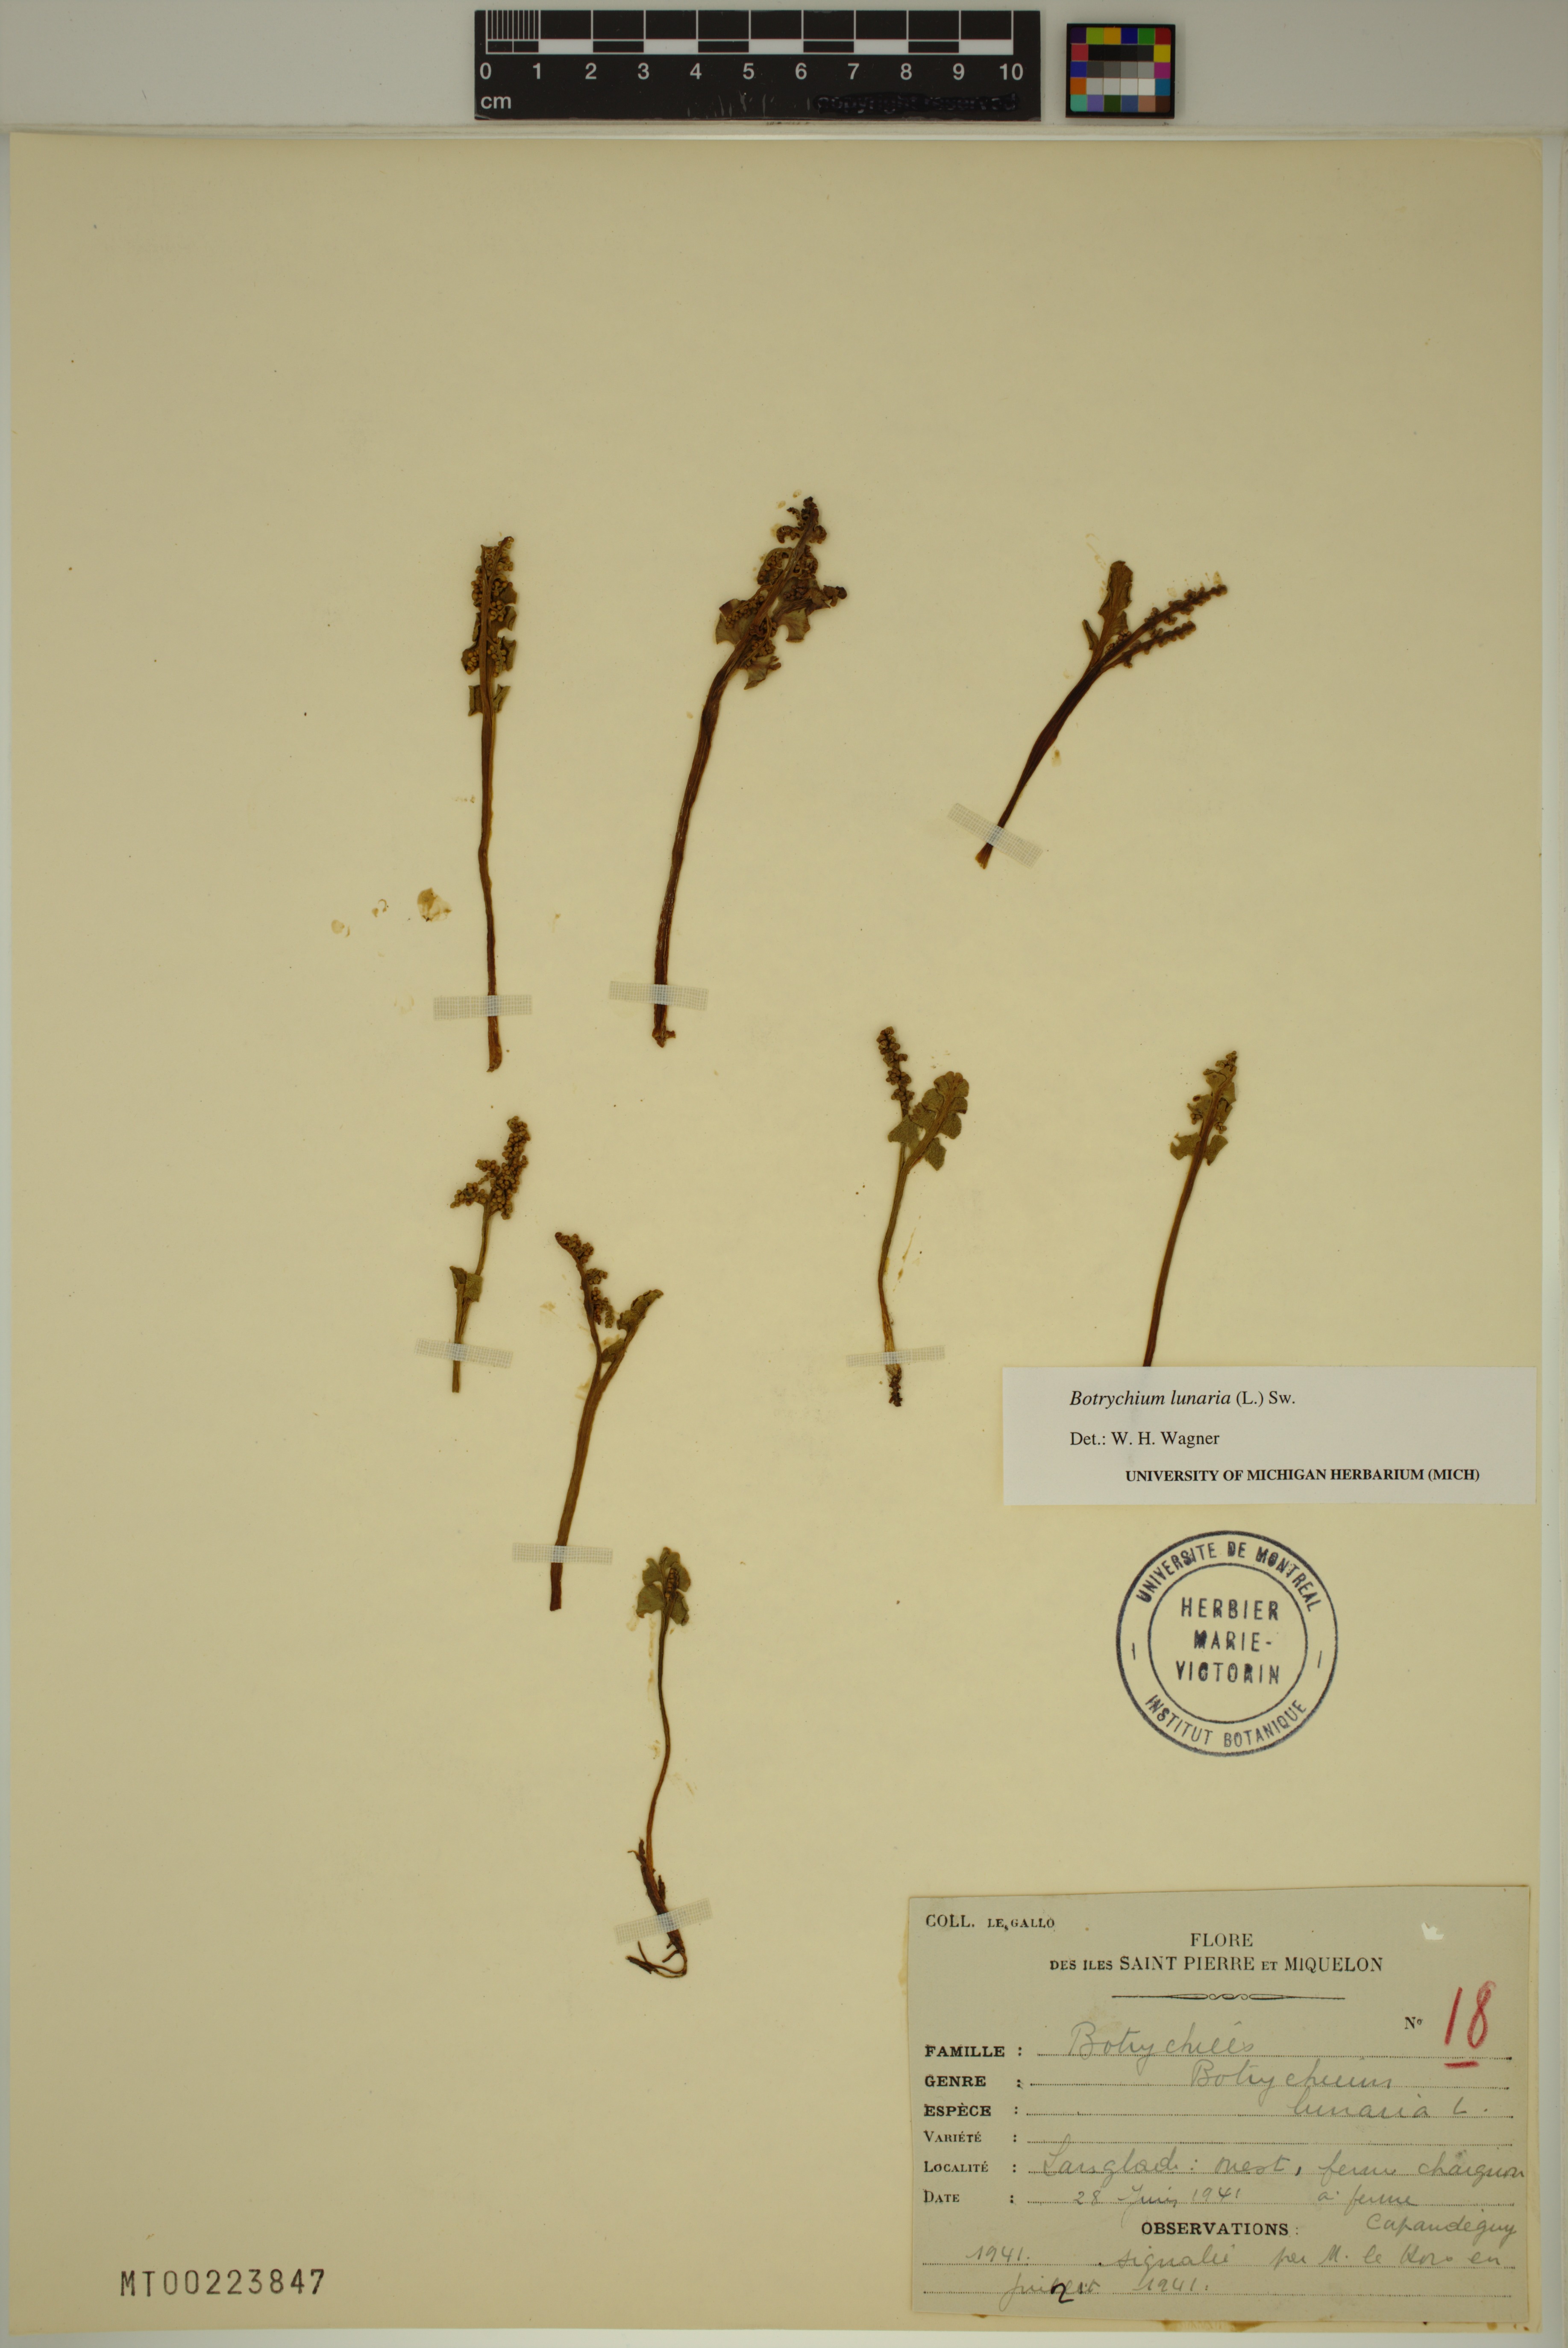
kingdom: Plantae
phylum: Tracheophyta
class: Polypodiopsida
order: Ophioglossales
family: Ophioglossaceae
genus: Botrychium
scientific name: Botrychium lunaria
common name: Moonwort
